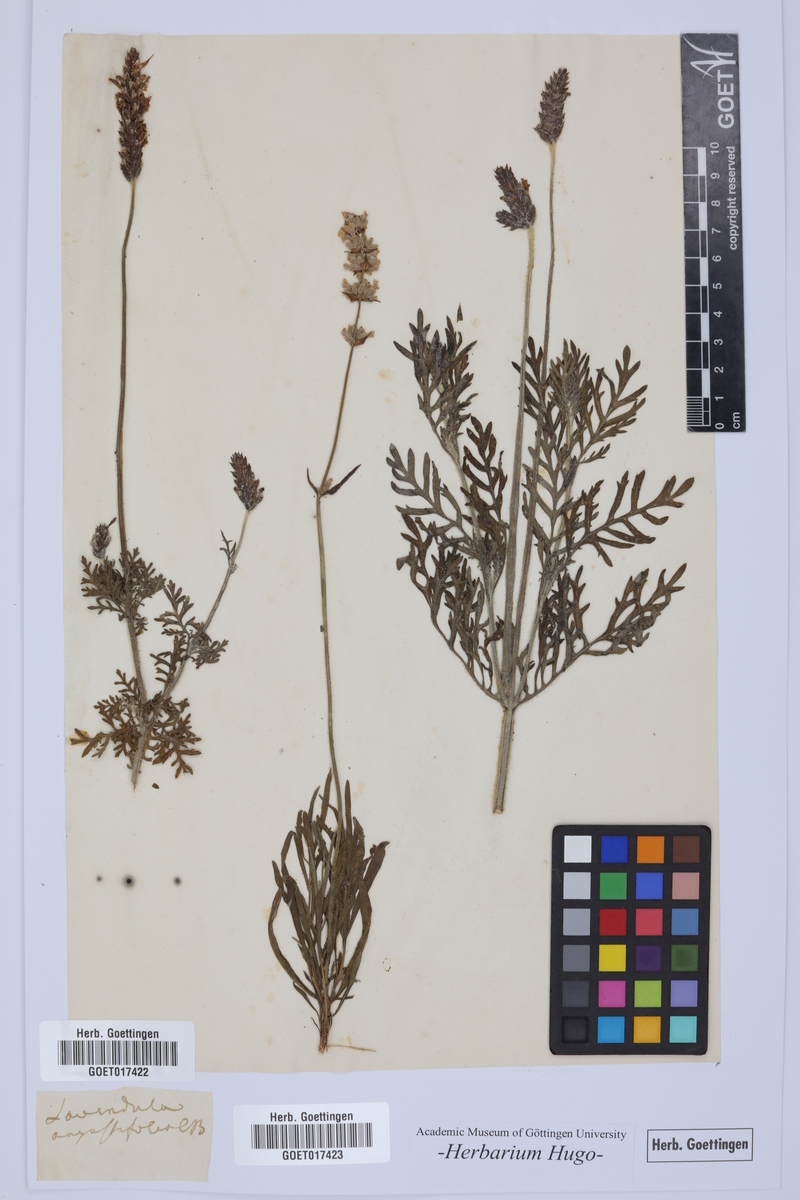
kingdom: Plantae
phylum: Tracheophyta
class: Magnoliopsida
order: Lamiales
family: Lamiaceae
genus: Lavandula
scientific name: Lavandula angustifolia
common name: Garden lavender
